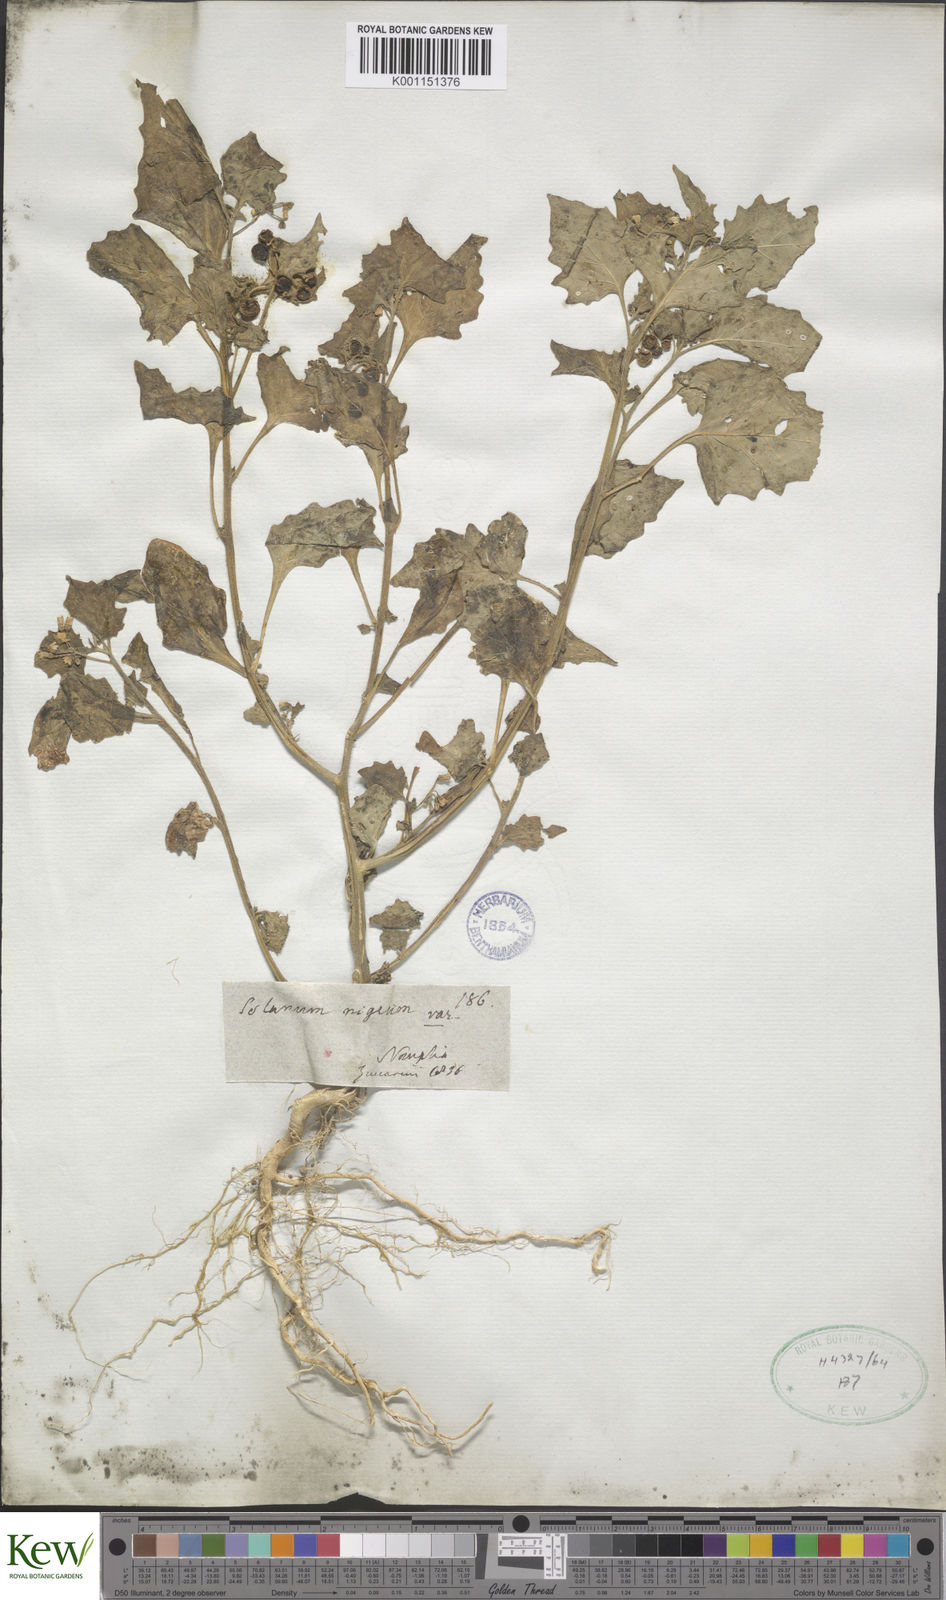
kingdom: Plantae
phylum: Tracheophyta
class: Magnoliopsida
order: Solanales
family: Solanaceae
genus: Solanum
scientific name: Solanum nigrum
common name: Black nightshade
